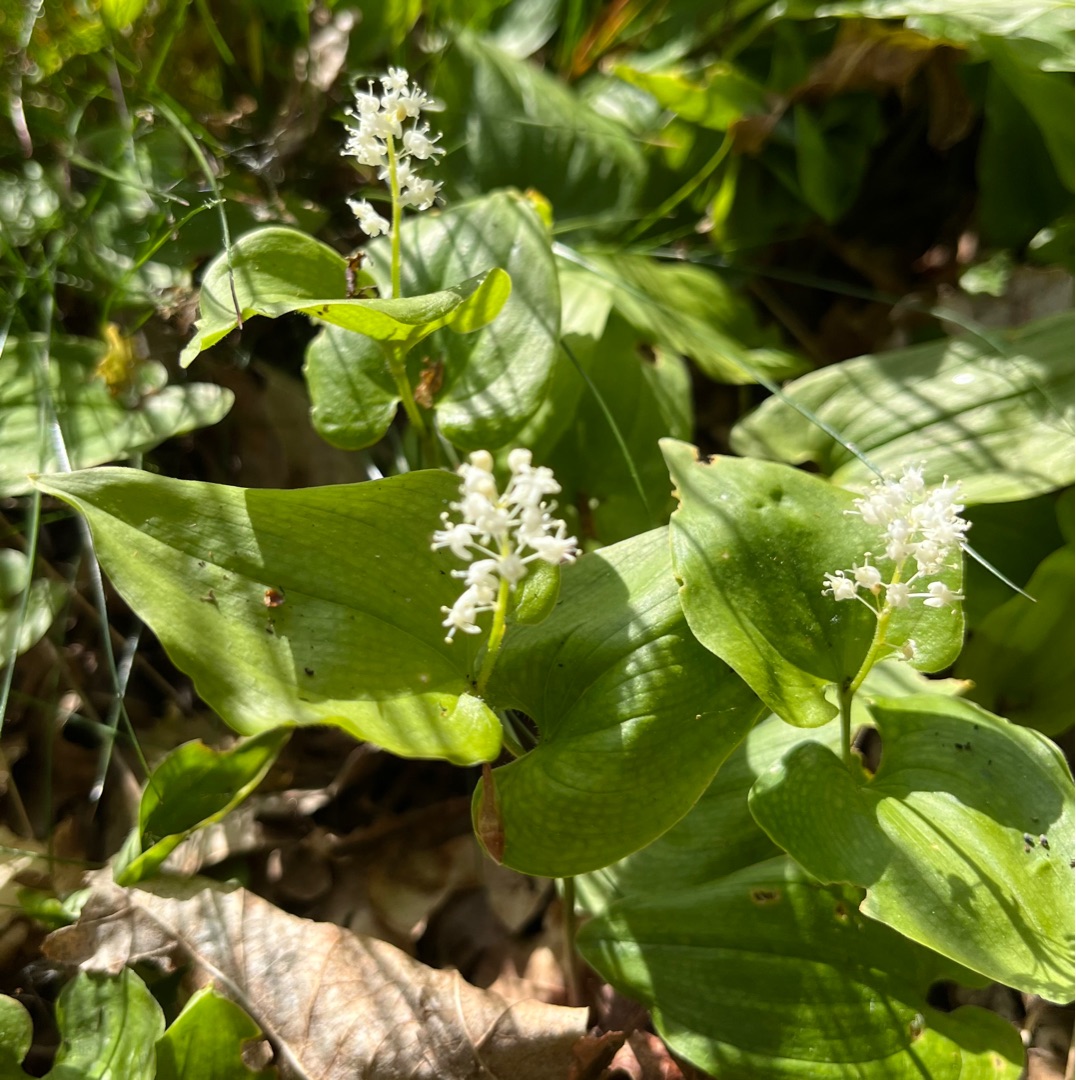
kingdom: Plantae
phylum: Tracheophyta
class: Liliopsida
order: Asparagales
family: Asparagaceae
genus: Maianthemum
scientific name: Maianthemum bifolium
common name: Majblomst
